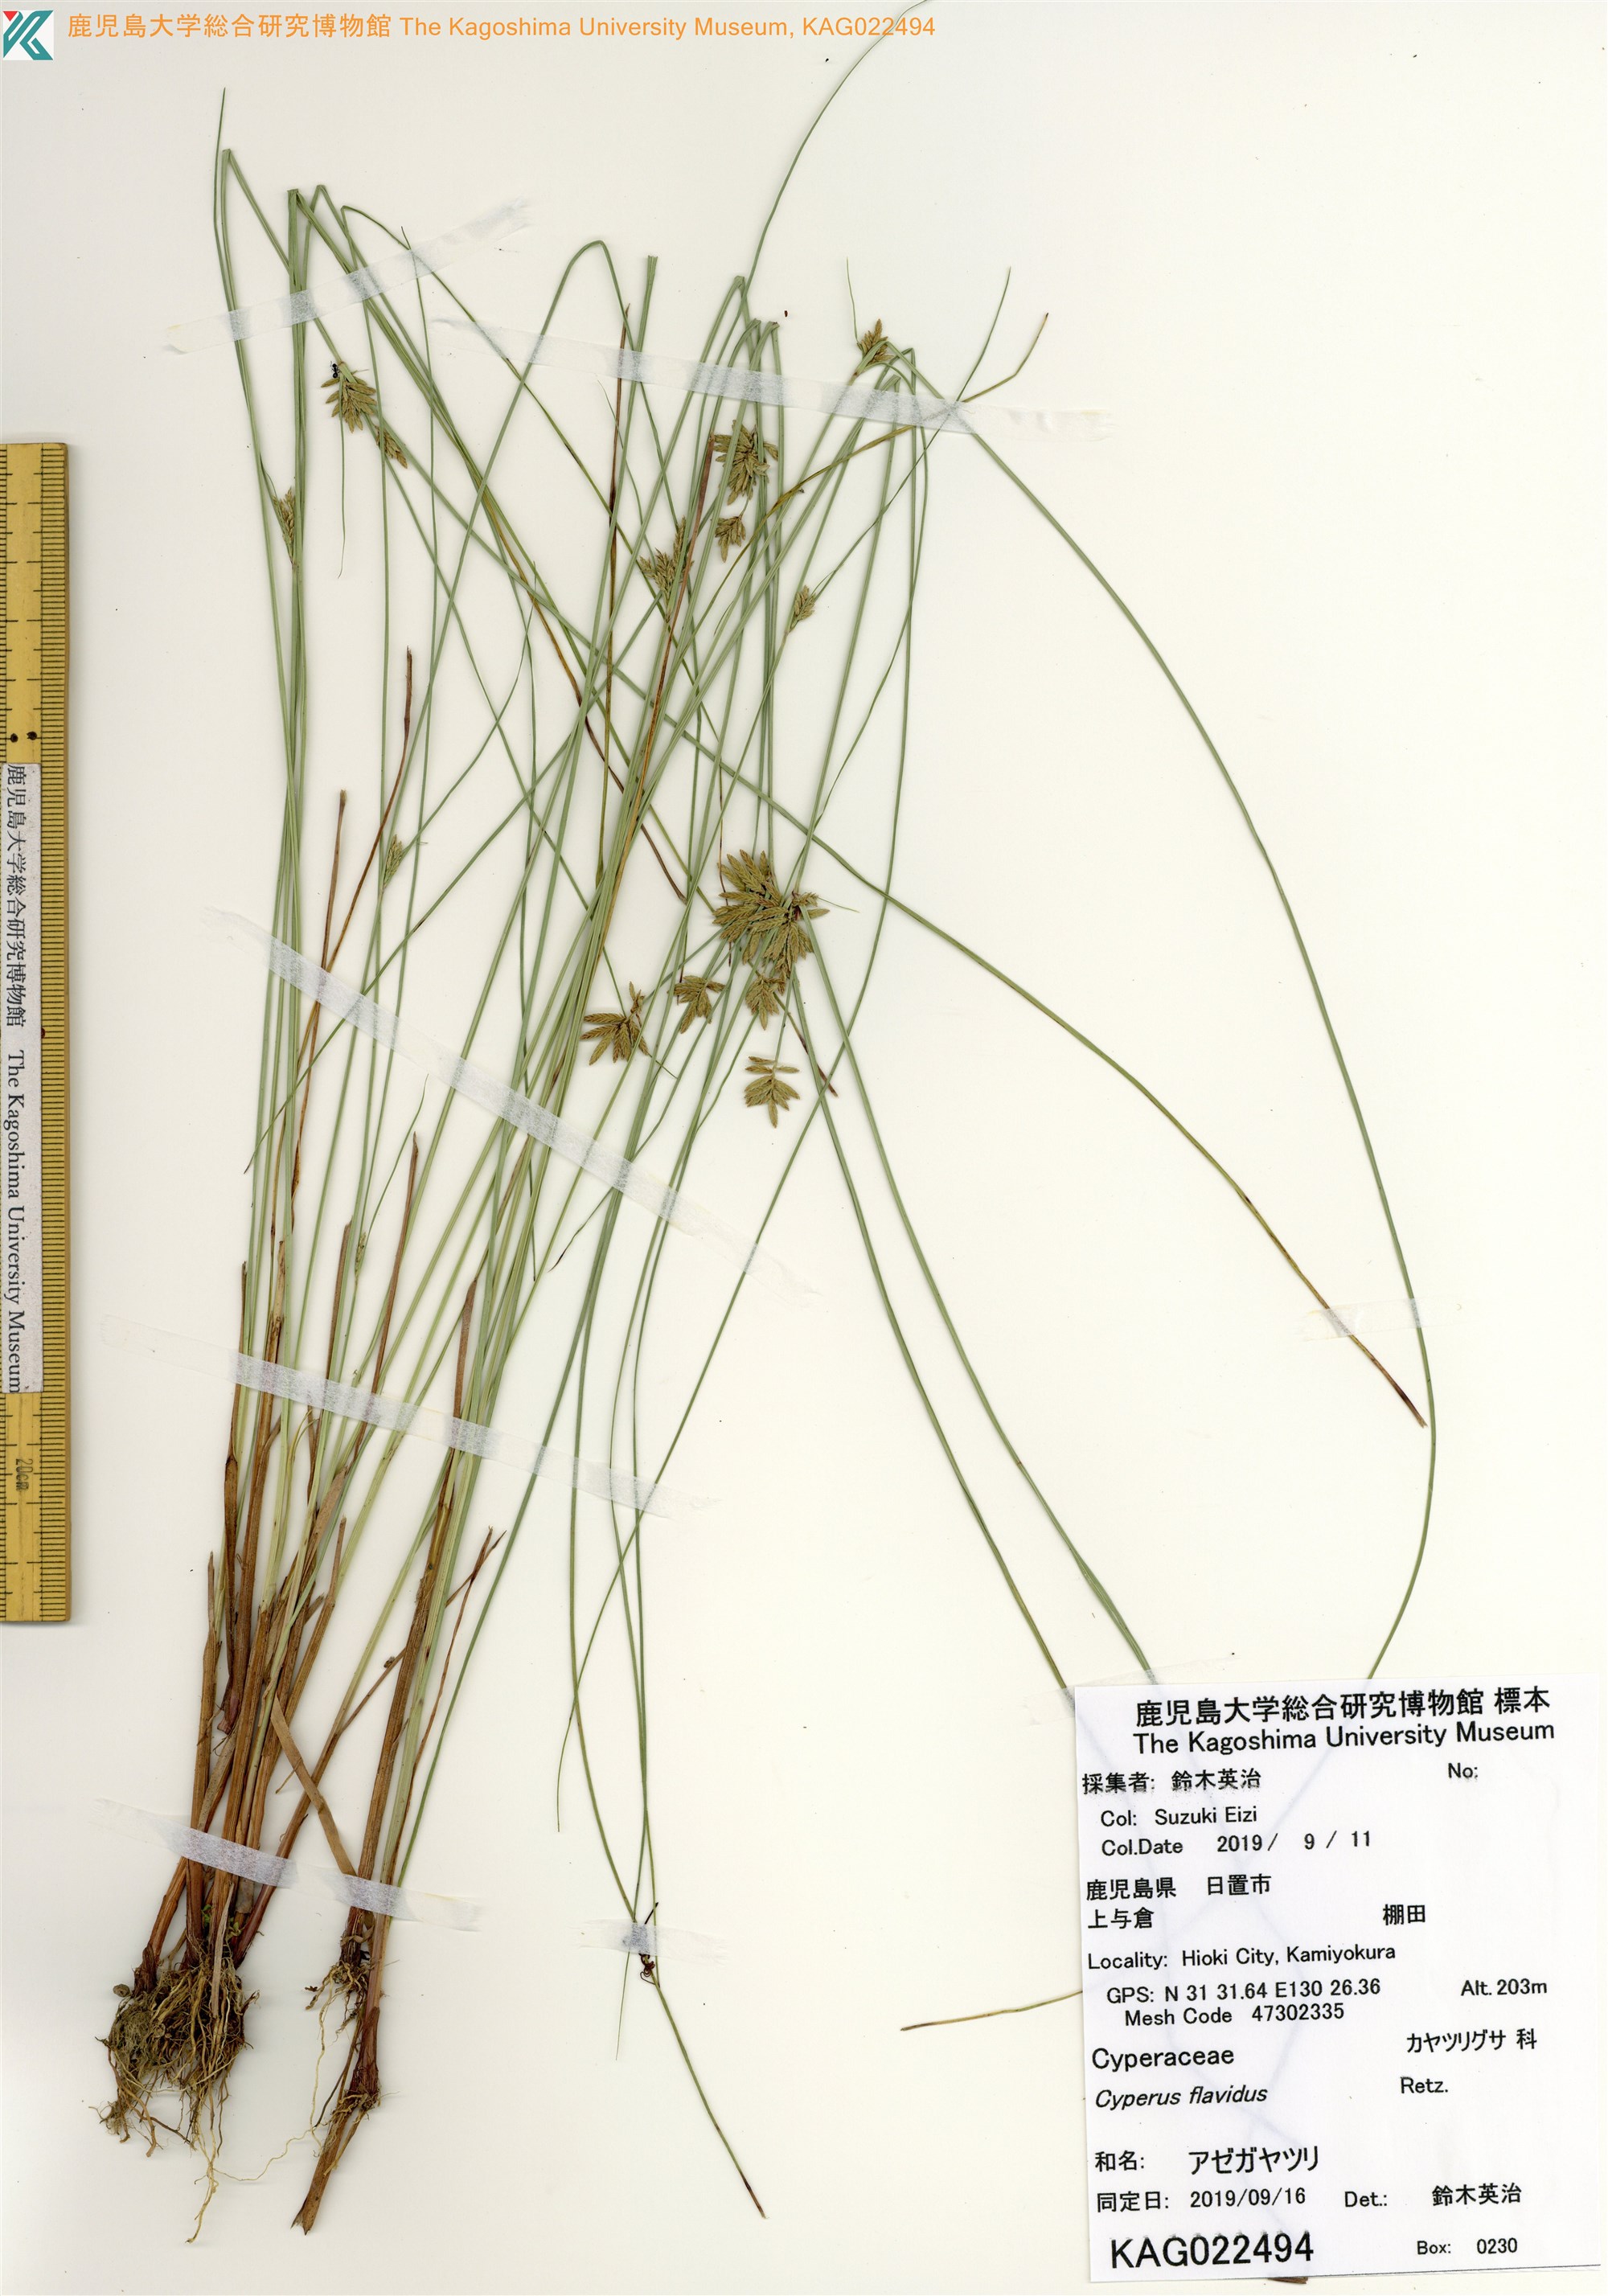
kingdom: Plantae
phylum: Tracheophyta
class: Liliopsida
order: Poales
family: Cyperaceae
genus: Cyperus
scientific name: Cyperus flavidus
